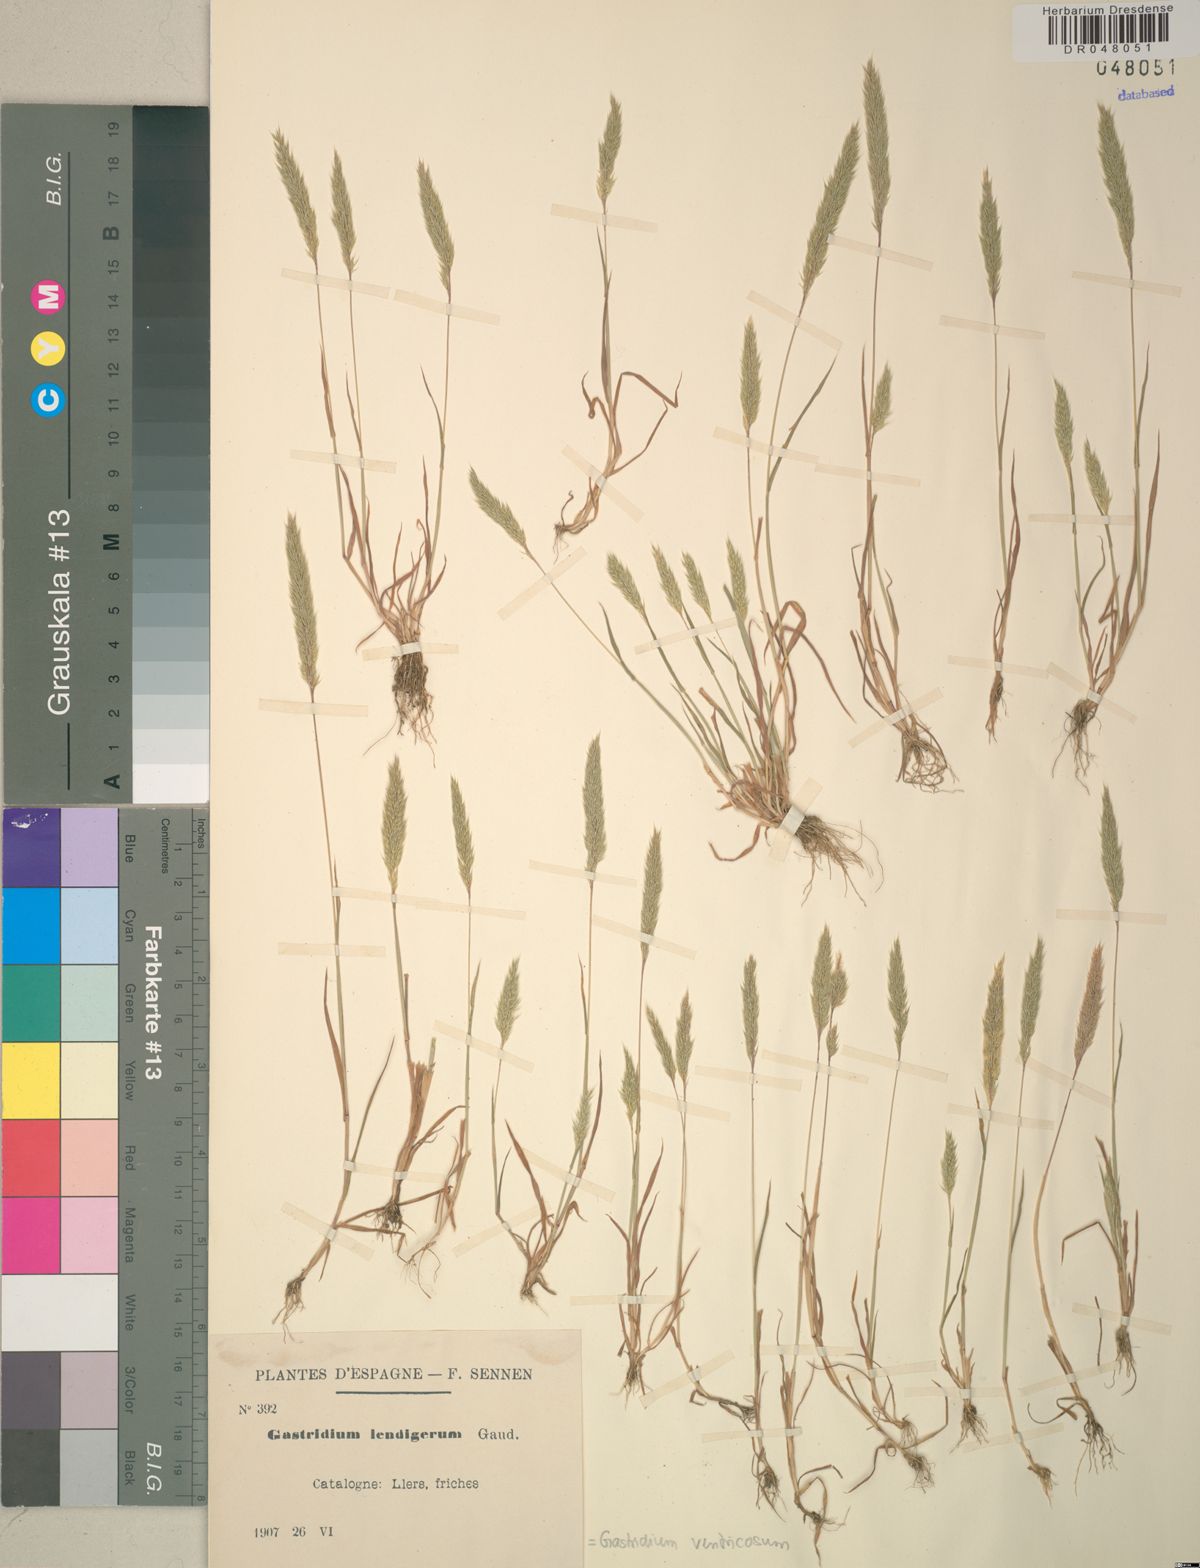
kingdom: Plantae
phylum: Tracheophyta
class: Liliopsida
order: Poales
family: Poaceae
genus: Gastridium
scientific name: Gastridium ventricosum
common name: Nit-grass
